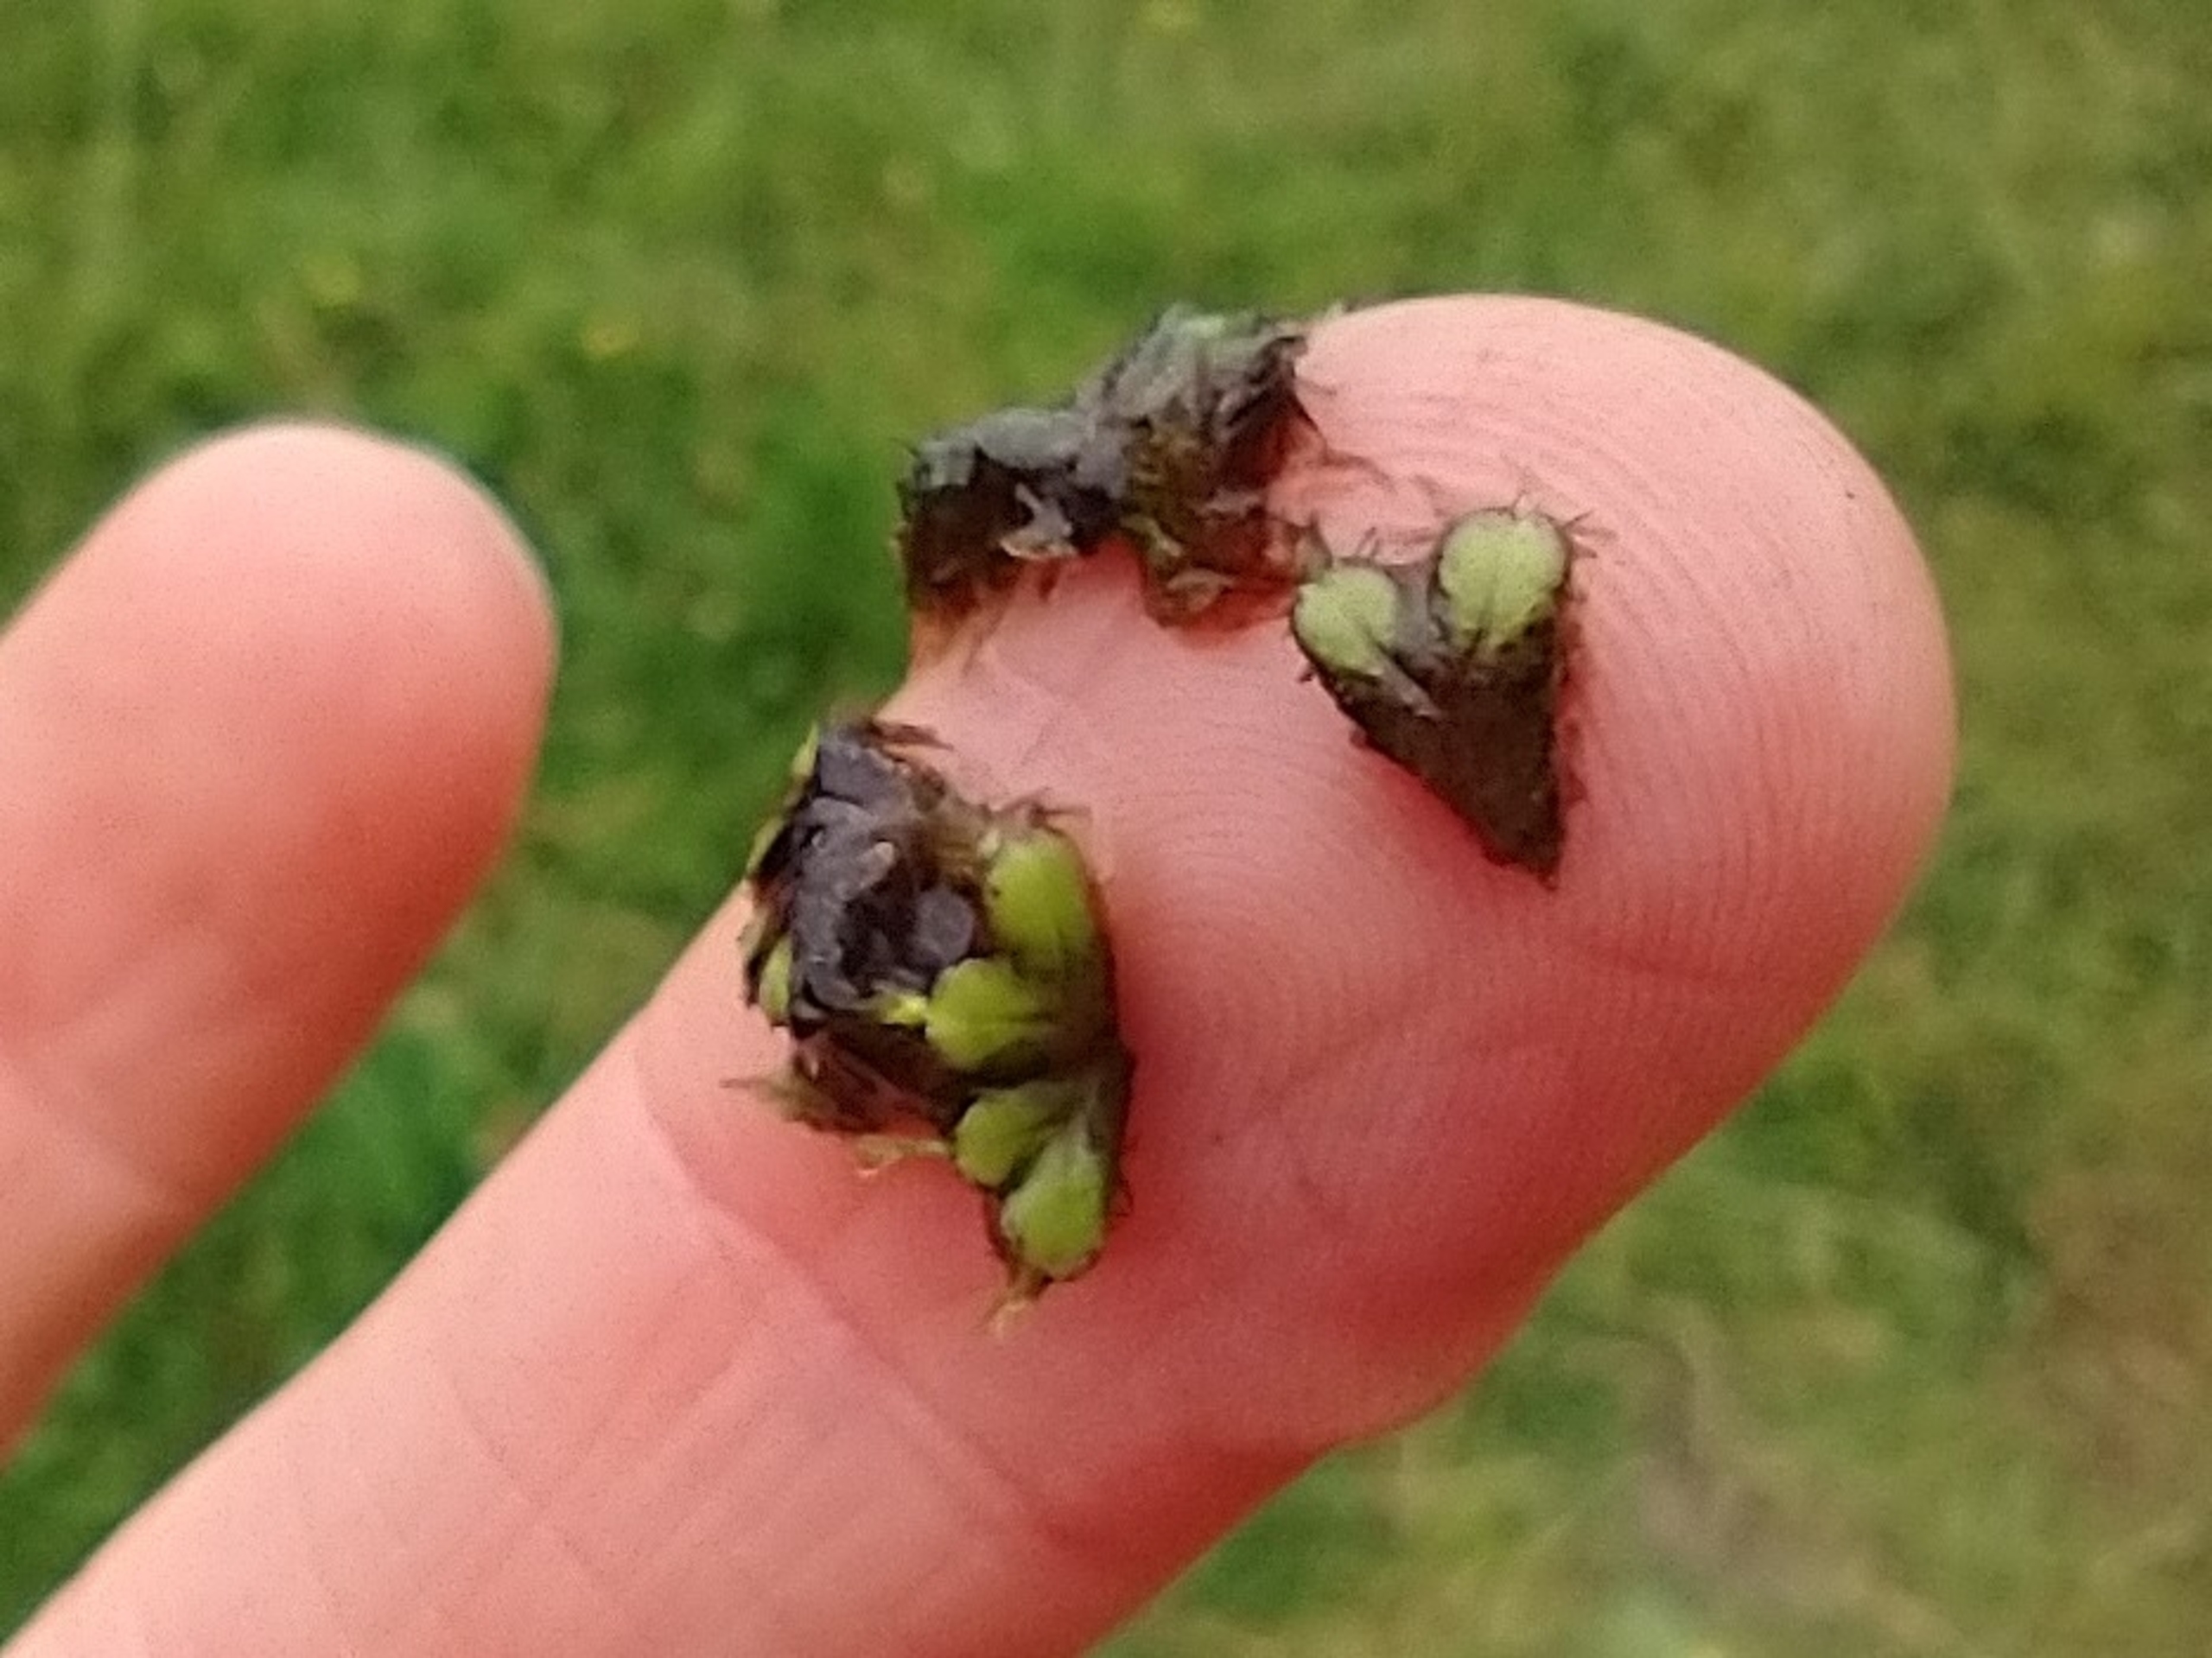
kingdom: Plantae
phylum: Marchantiophyta
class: Marchantiopsida
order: Marchantiales
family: Ricciaceae
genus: Ricciocarpos
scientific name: Ricciocarpos natans
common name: Flydende skælløv
